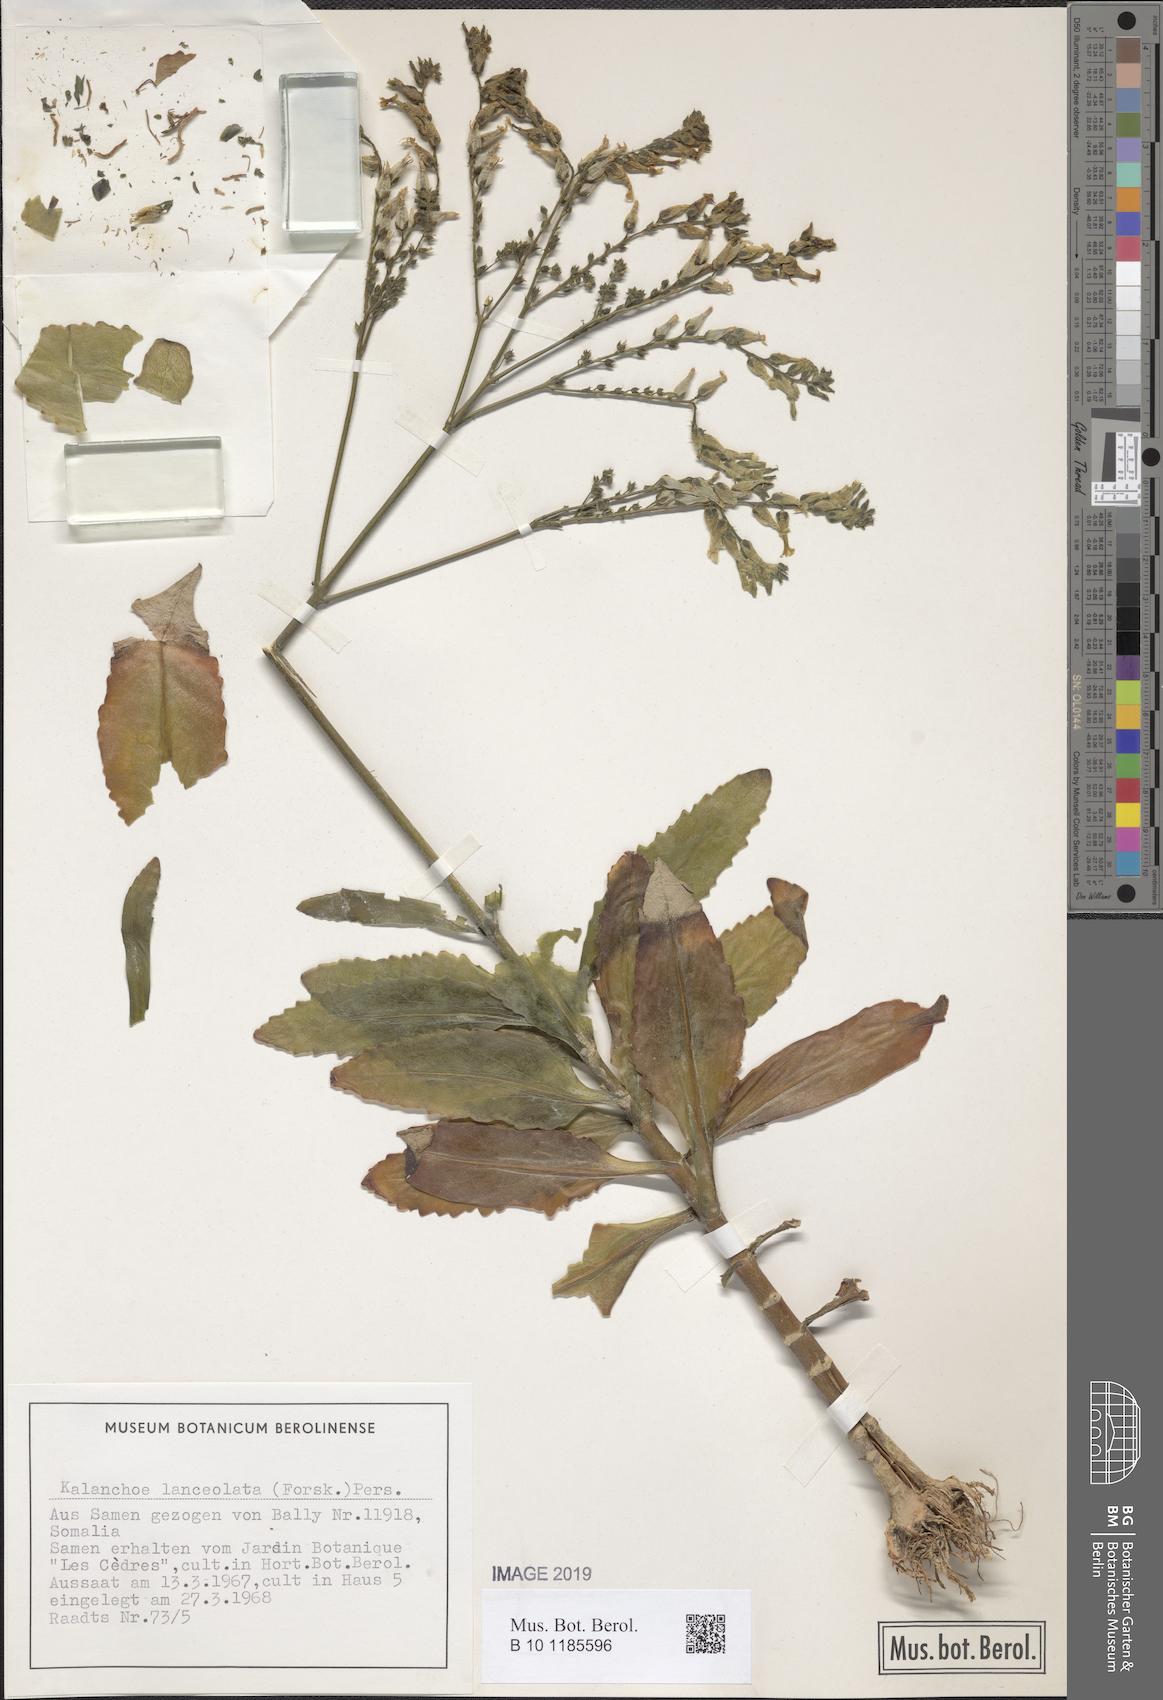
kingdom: Plantae
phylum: Tracheophyta
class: Magnoliopsida
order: Saxifragales
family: Crassulaceae
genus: Kalanchoe
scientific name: Kalanchoe lanceolata
